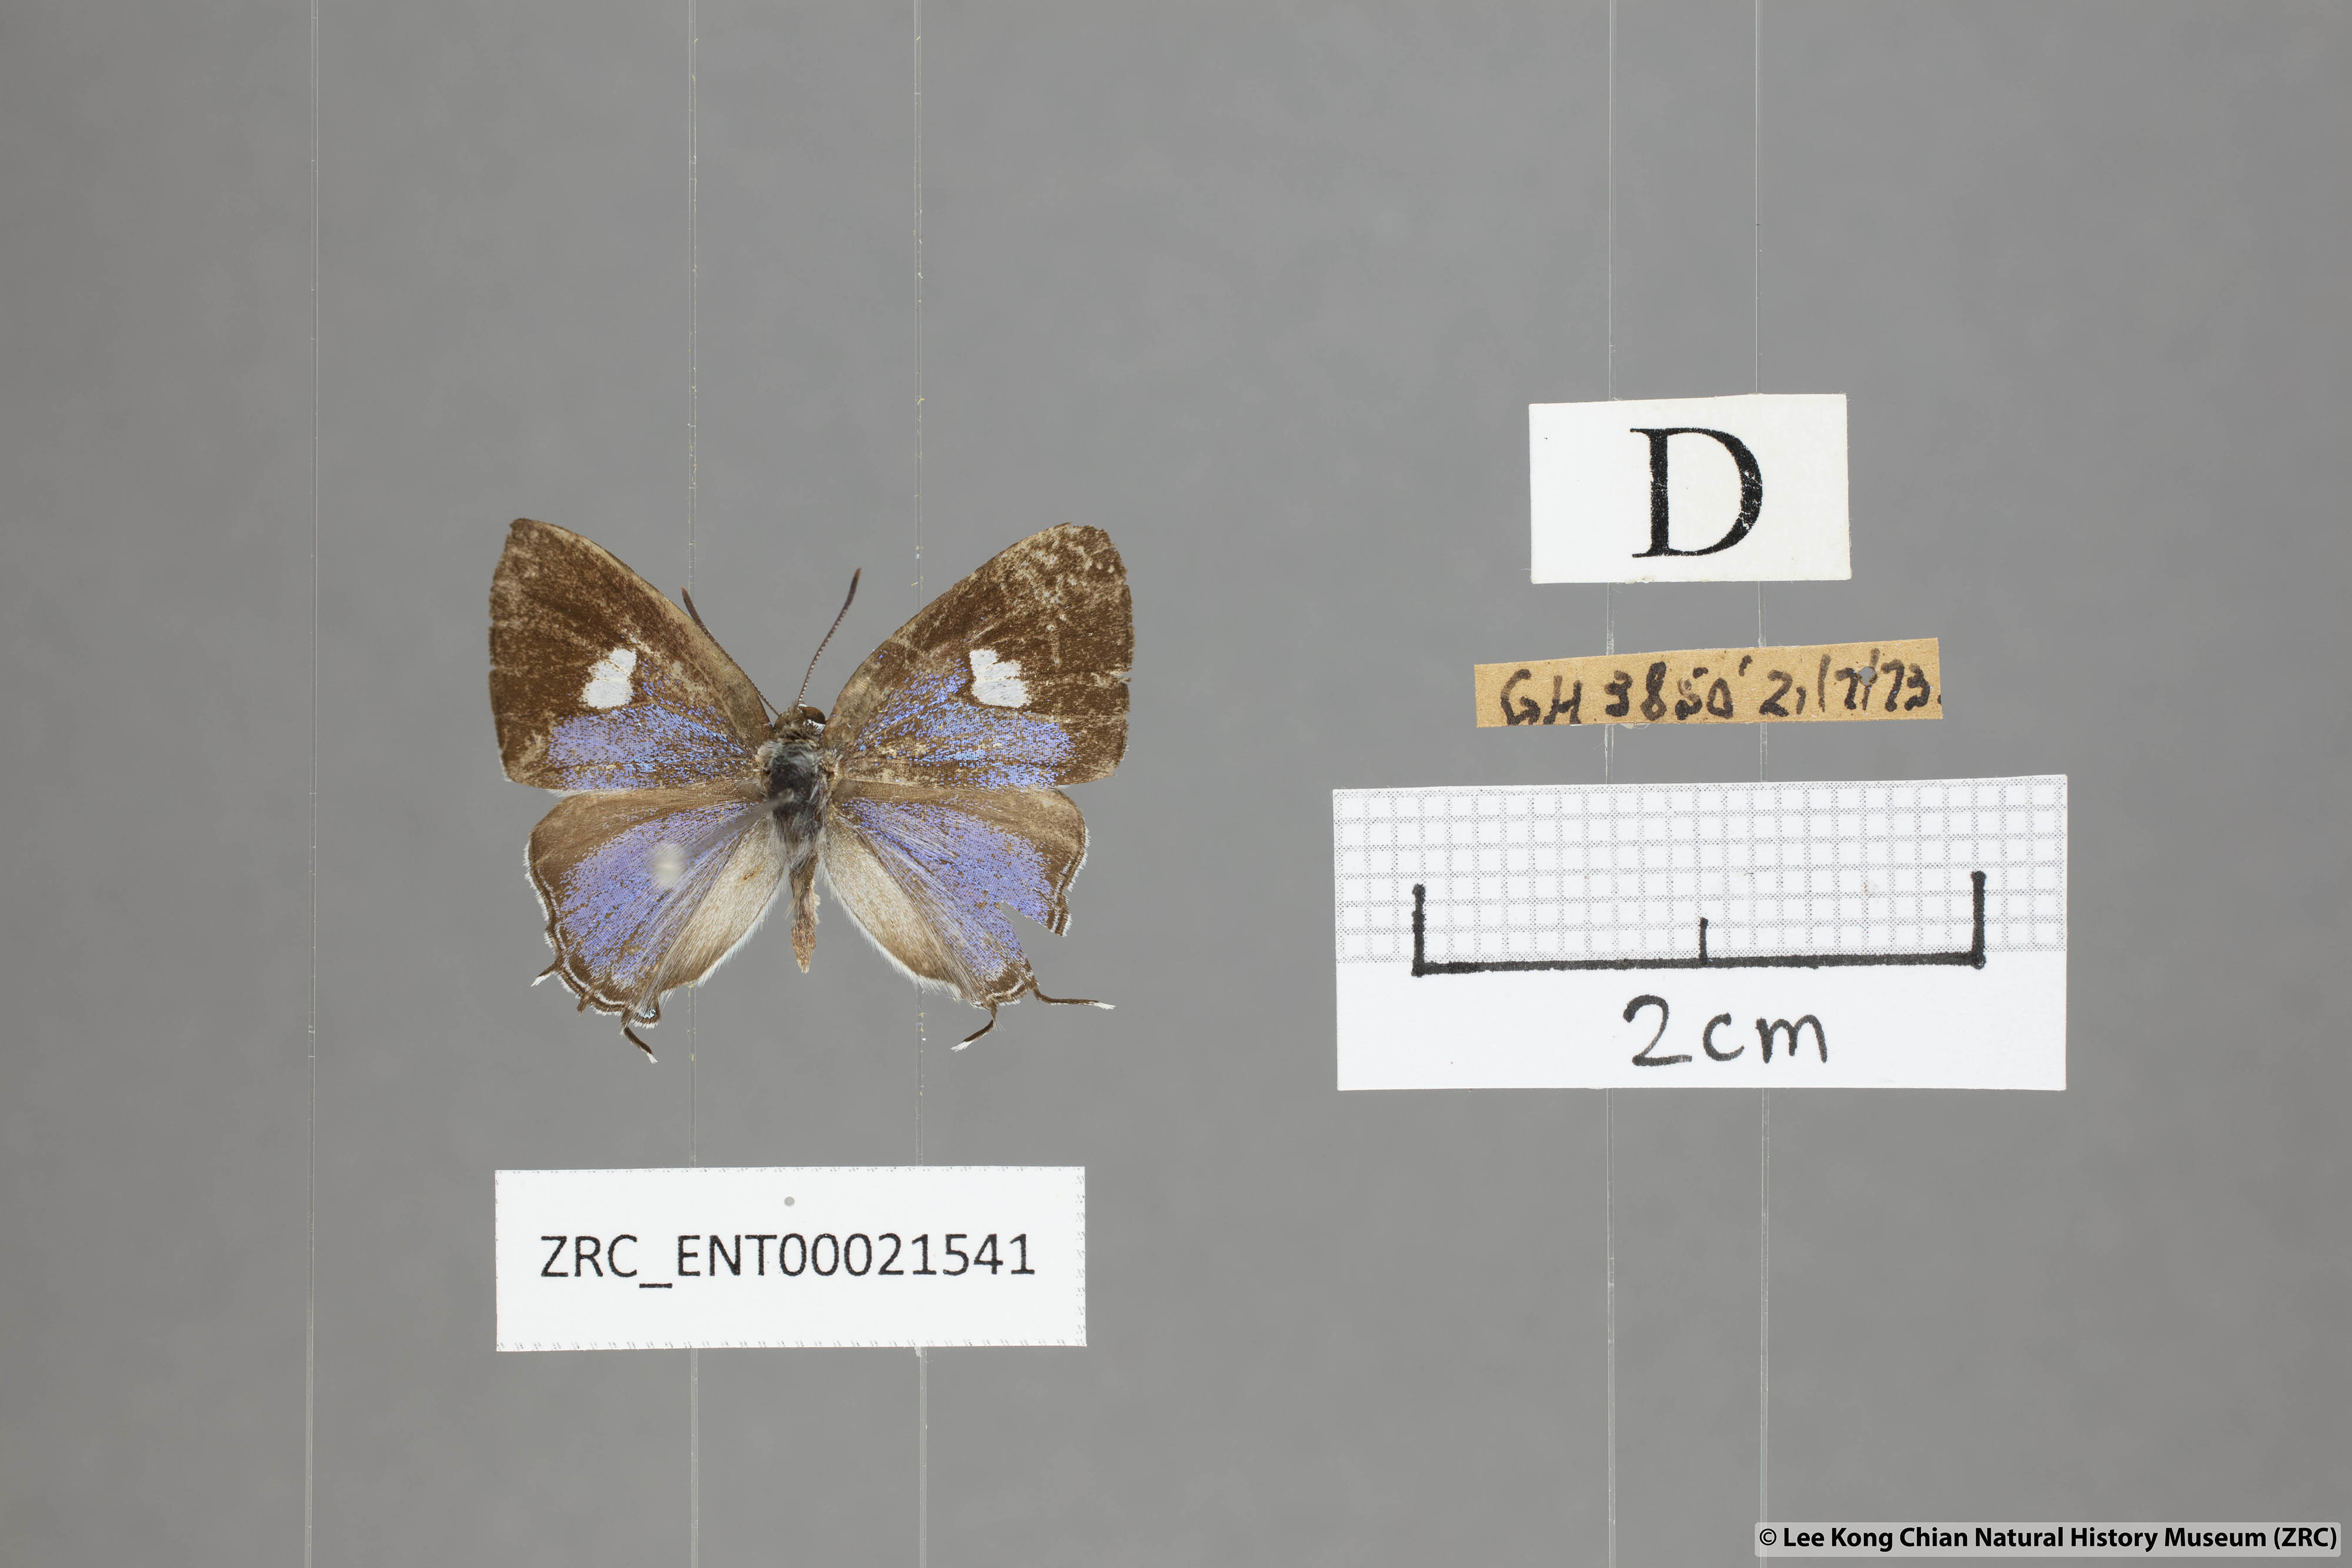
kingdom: Animalia
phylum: Arthropoda
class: Insecta
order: Lepidoptera
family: Lycaenidae
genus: Horaga
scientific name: Horaga syrinx
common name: Ambon onyx
